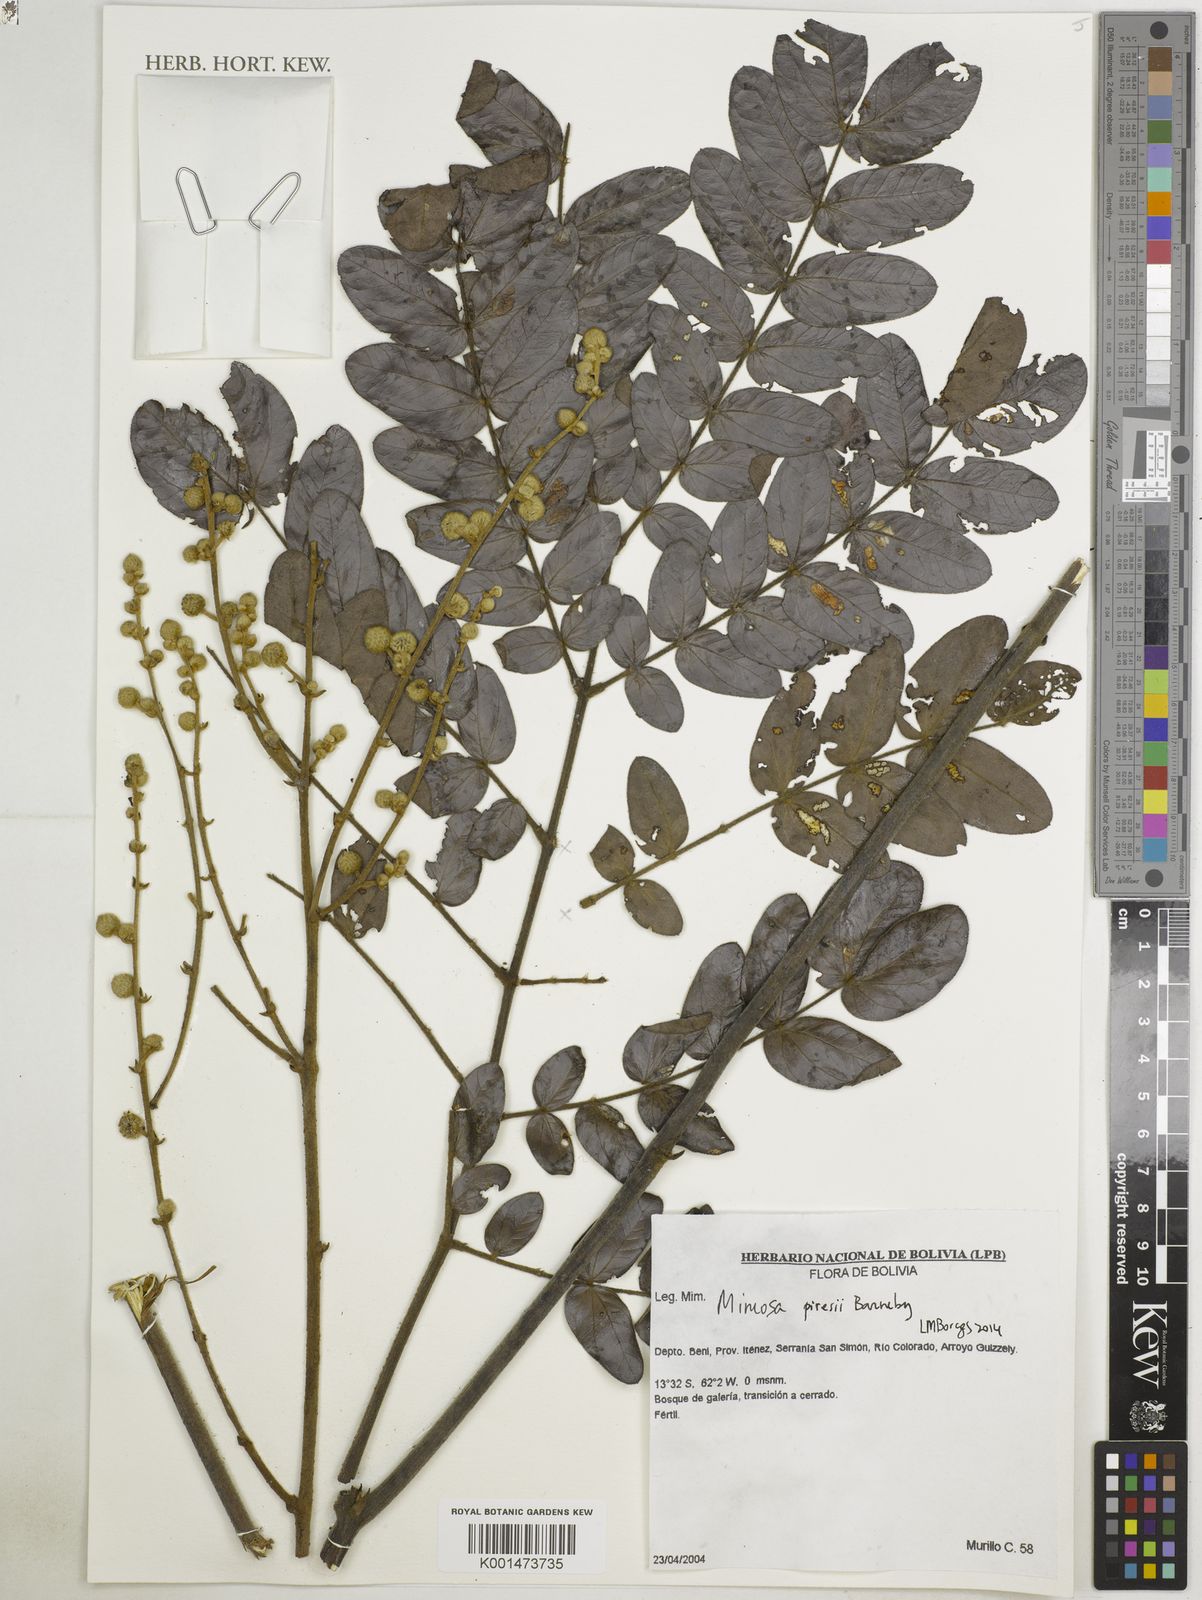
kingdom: Plantae
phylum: Tracheophyta
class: Magnoliopsida
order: Fabales
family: Fabaceae
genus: Mimosa
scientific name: Mimosa piresii
